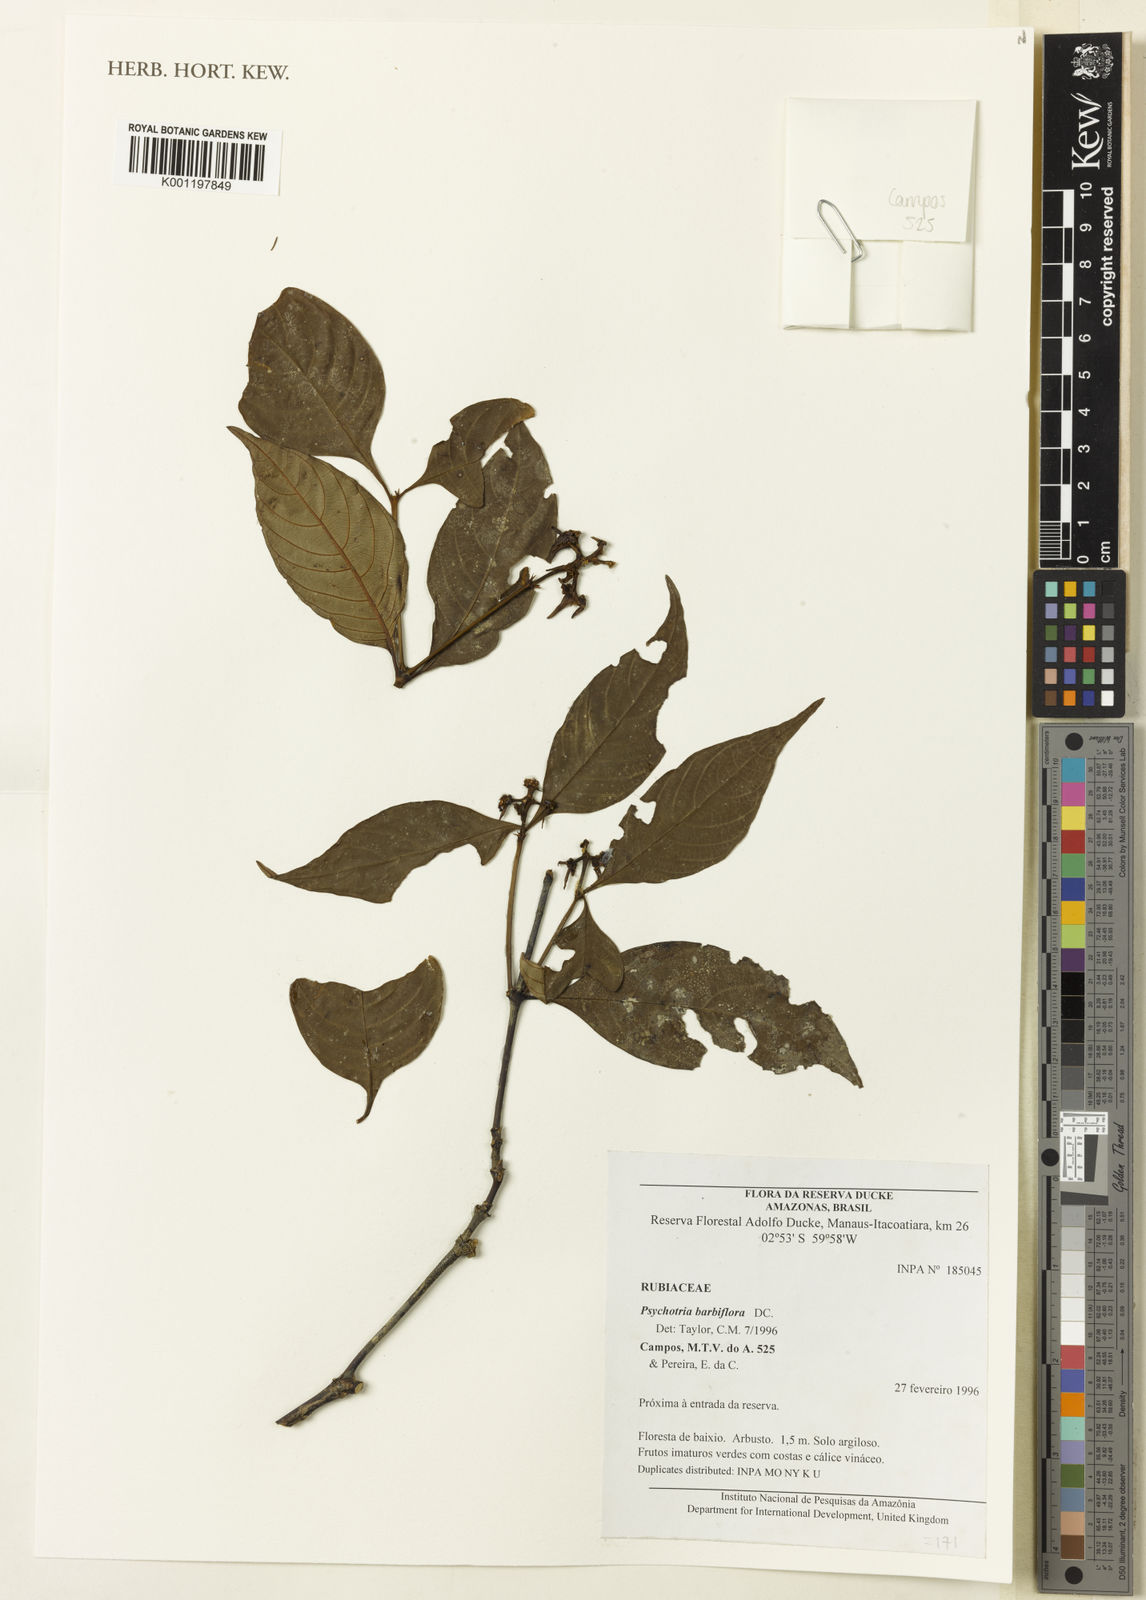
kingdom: Plantae
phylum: Tracheophyta
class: Magnoliopsida
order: Gentianales
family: Rubiaceae
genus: Psychotria
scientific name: Psychotria
